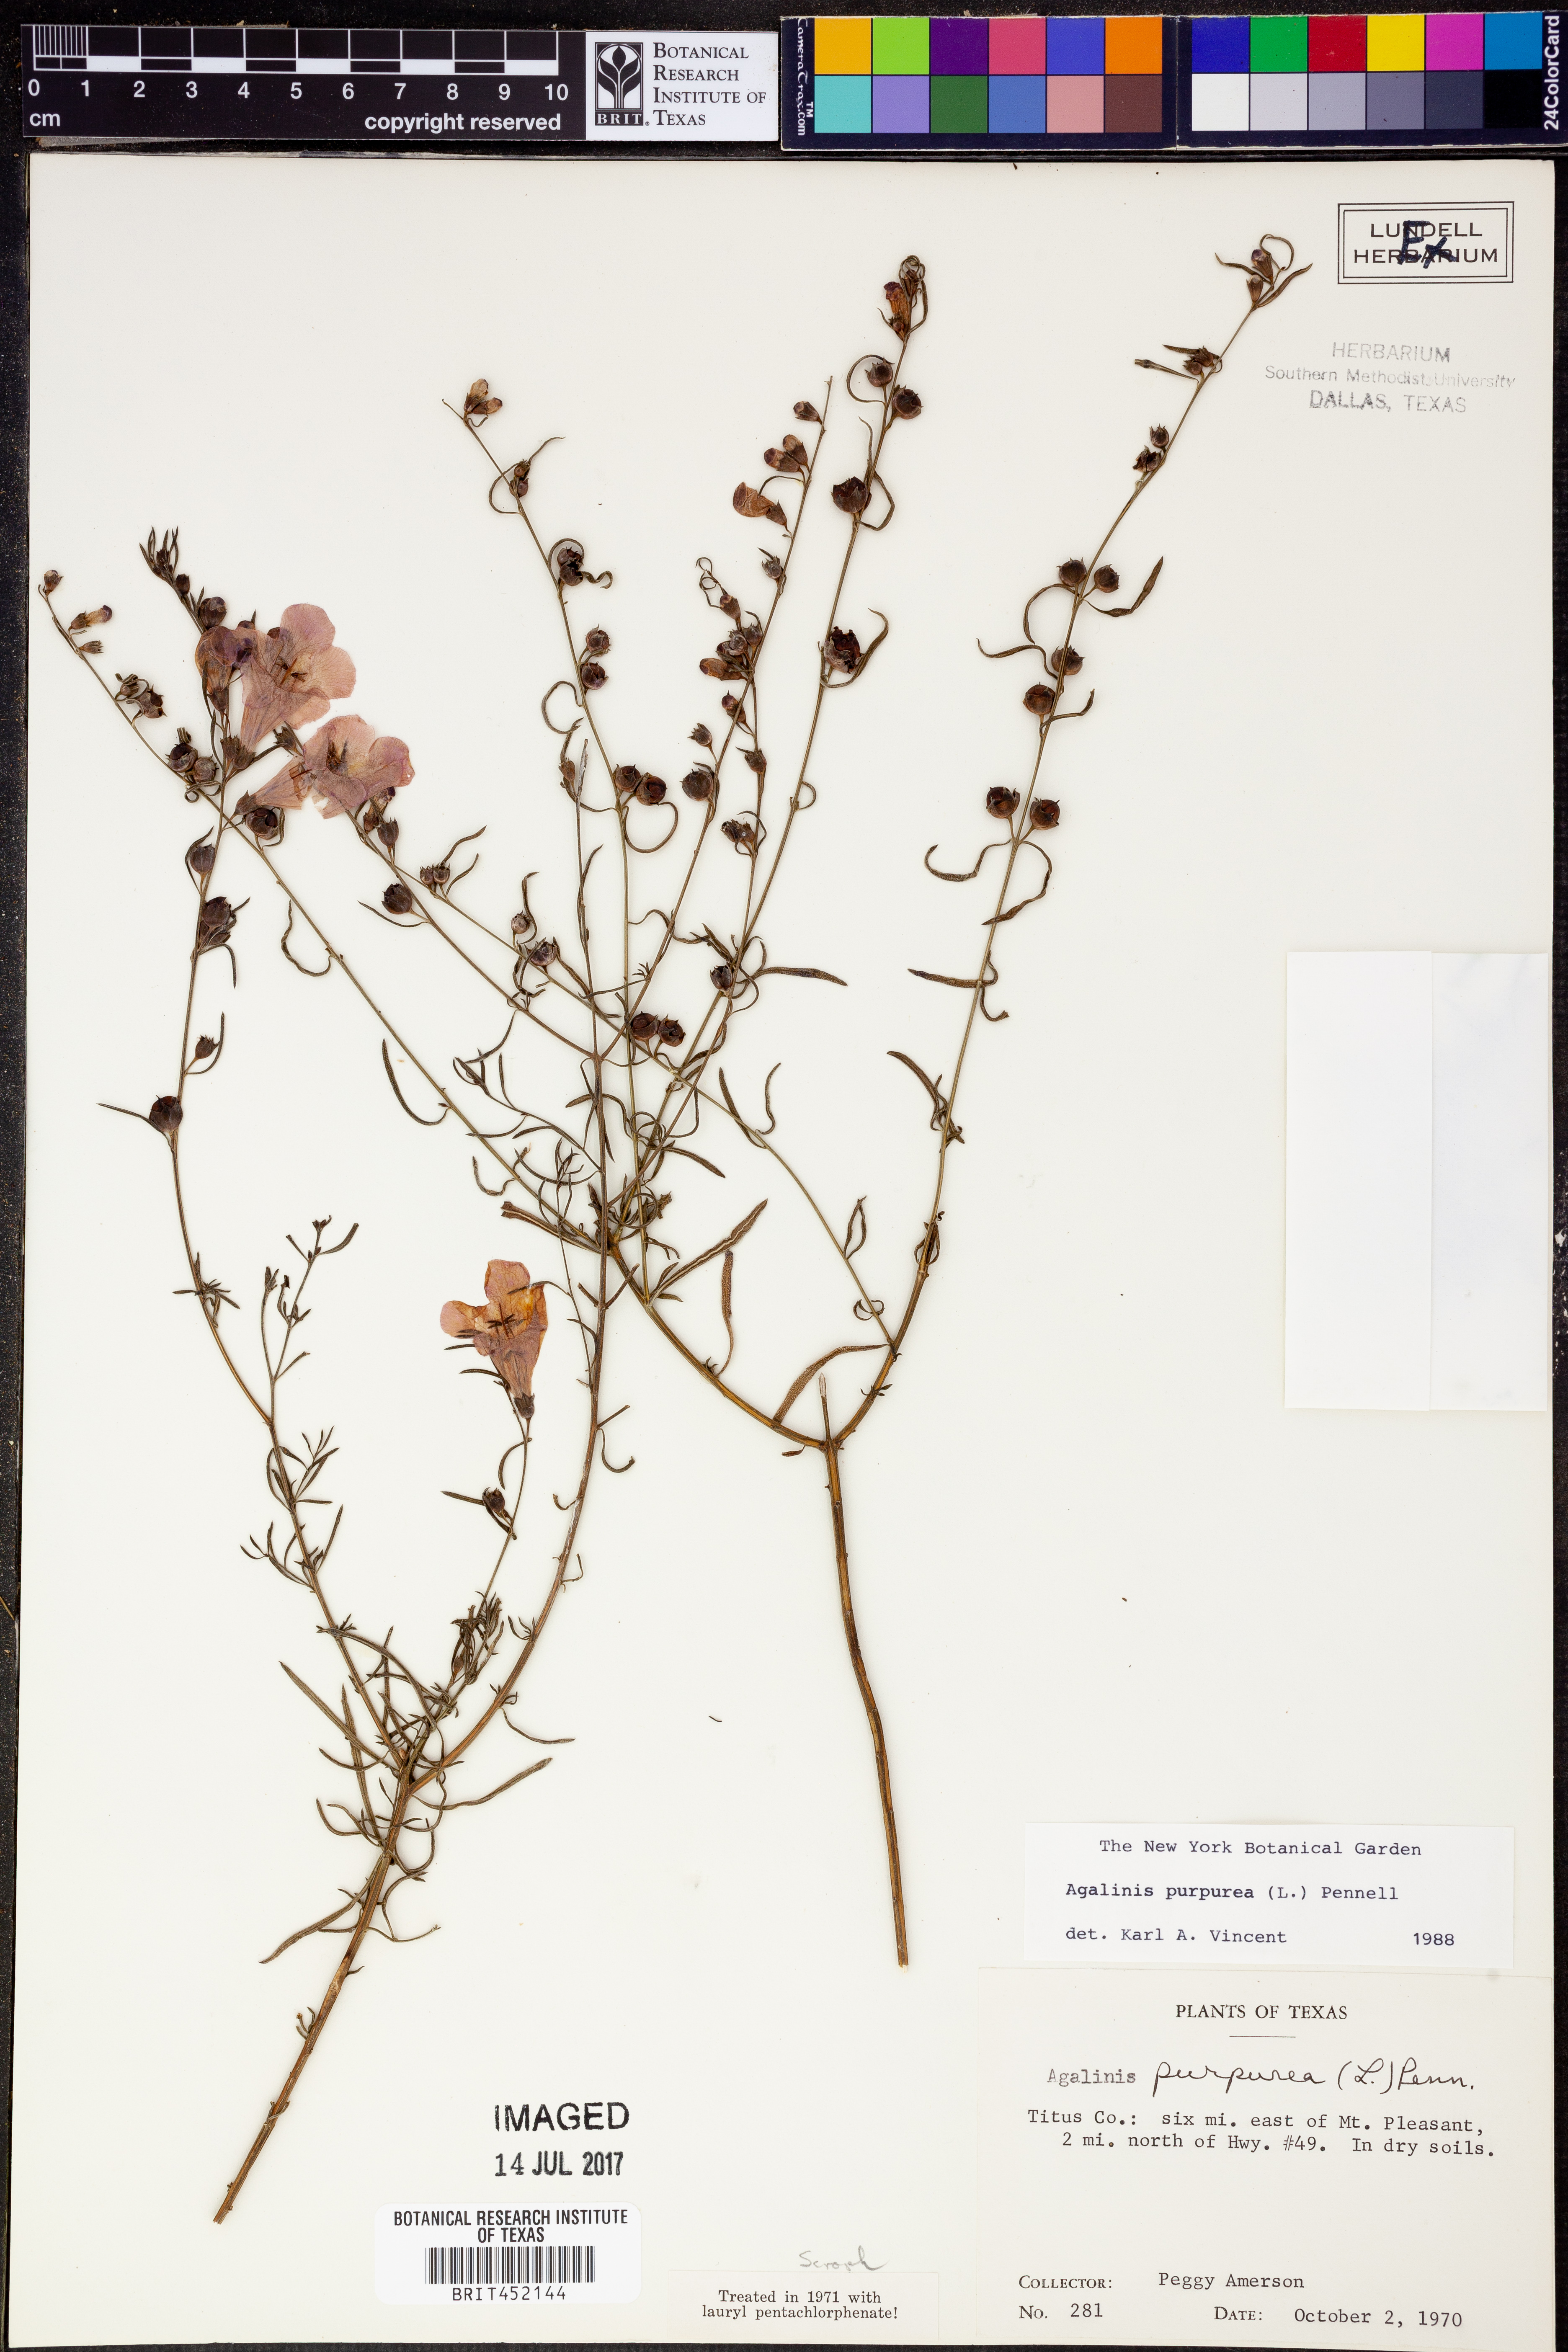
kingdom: Plantae
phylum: Tracheophyta
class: Magnoliopsida
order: Lamiales
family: Orobanchaceae
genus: Agalinis
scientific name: Agalinis purpurea
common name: Purple false foxglove
